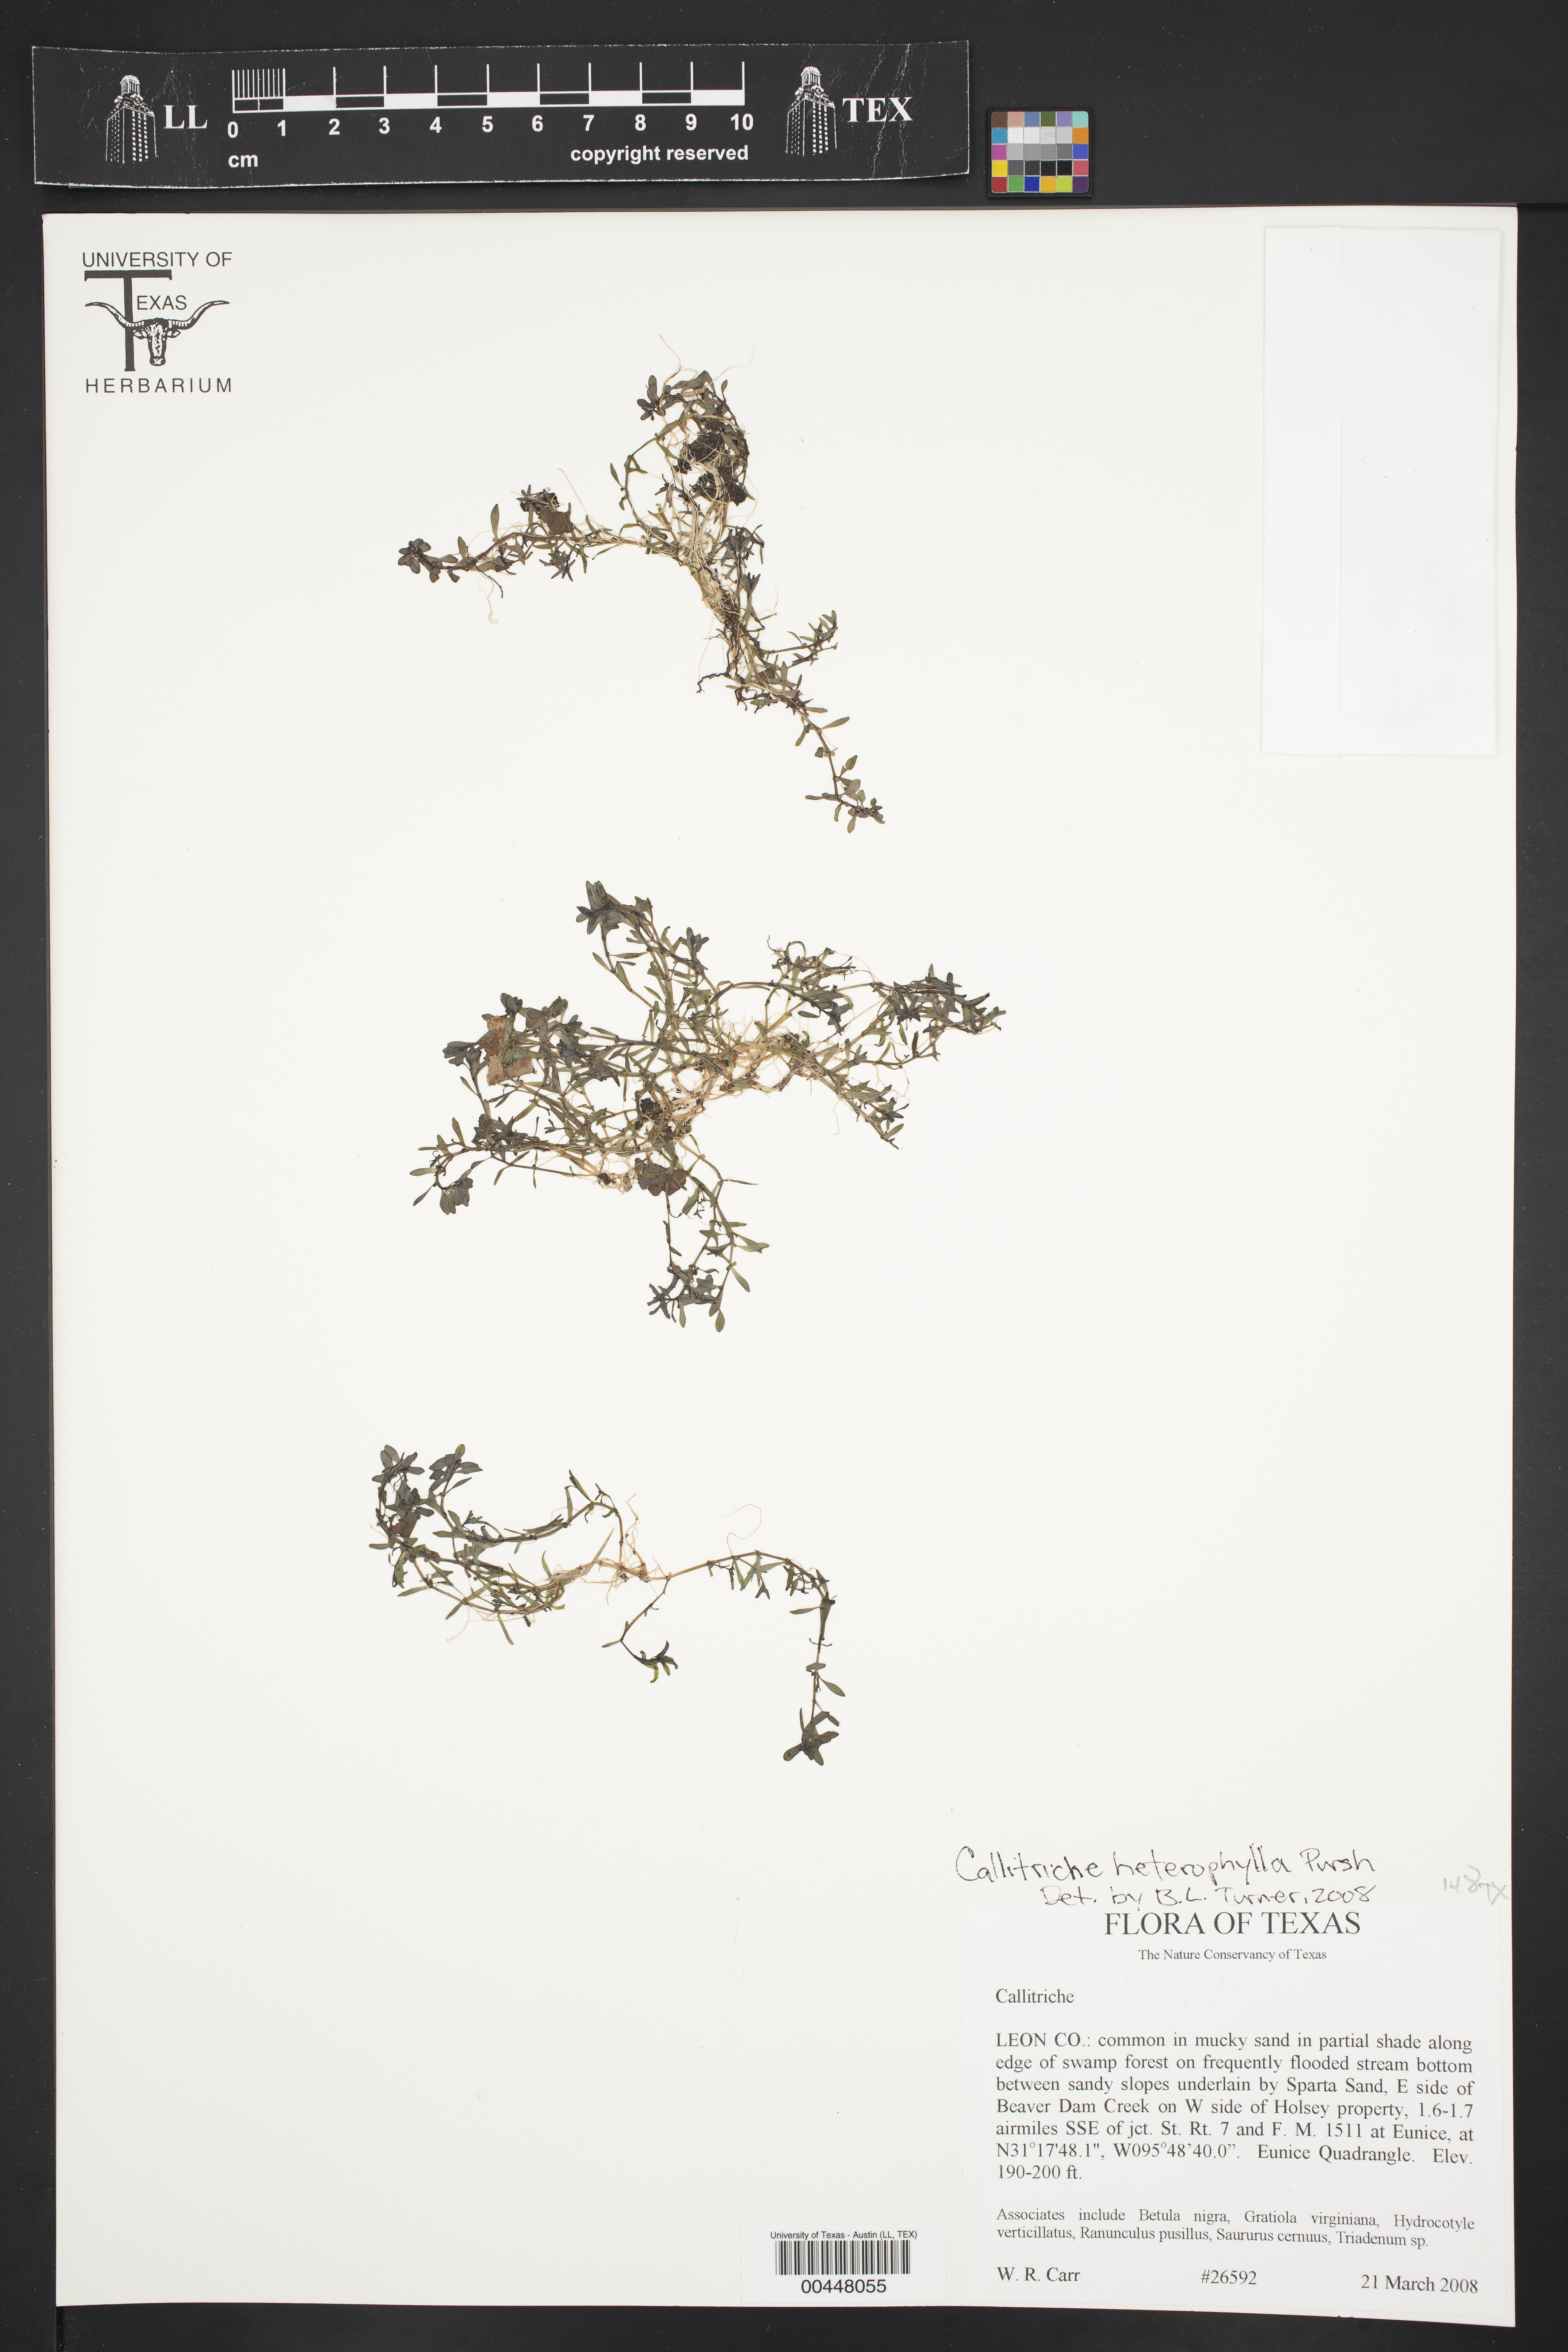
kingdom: Plantae
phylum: Tracheophyta
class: Magnoliopsida
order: Lamiales
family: Plantaginaceae
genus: Callitriche
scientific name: Callitriche heterophylla
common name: Two-headed water-starwort
